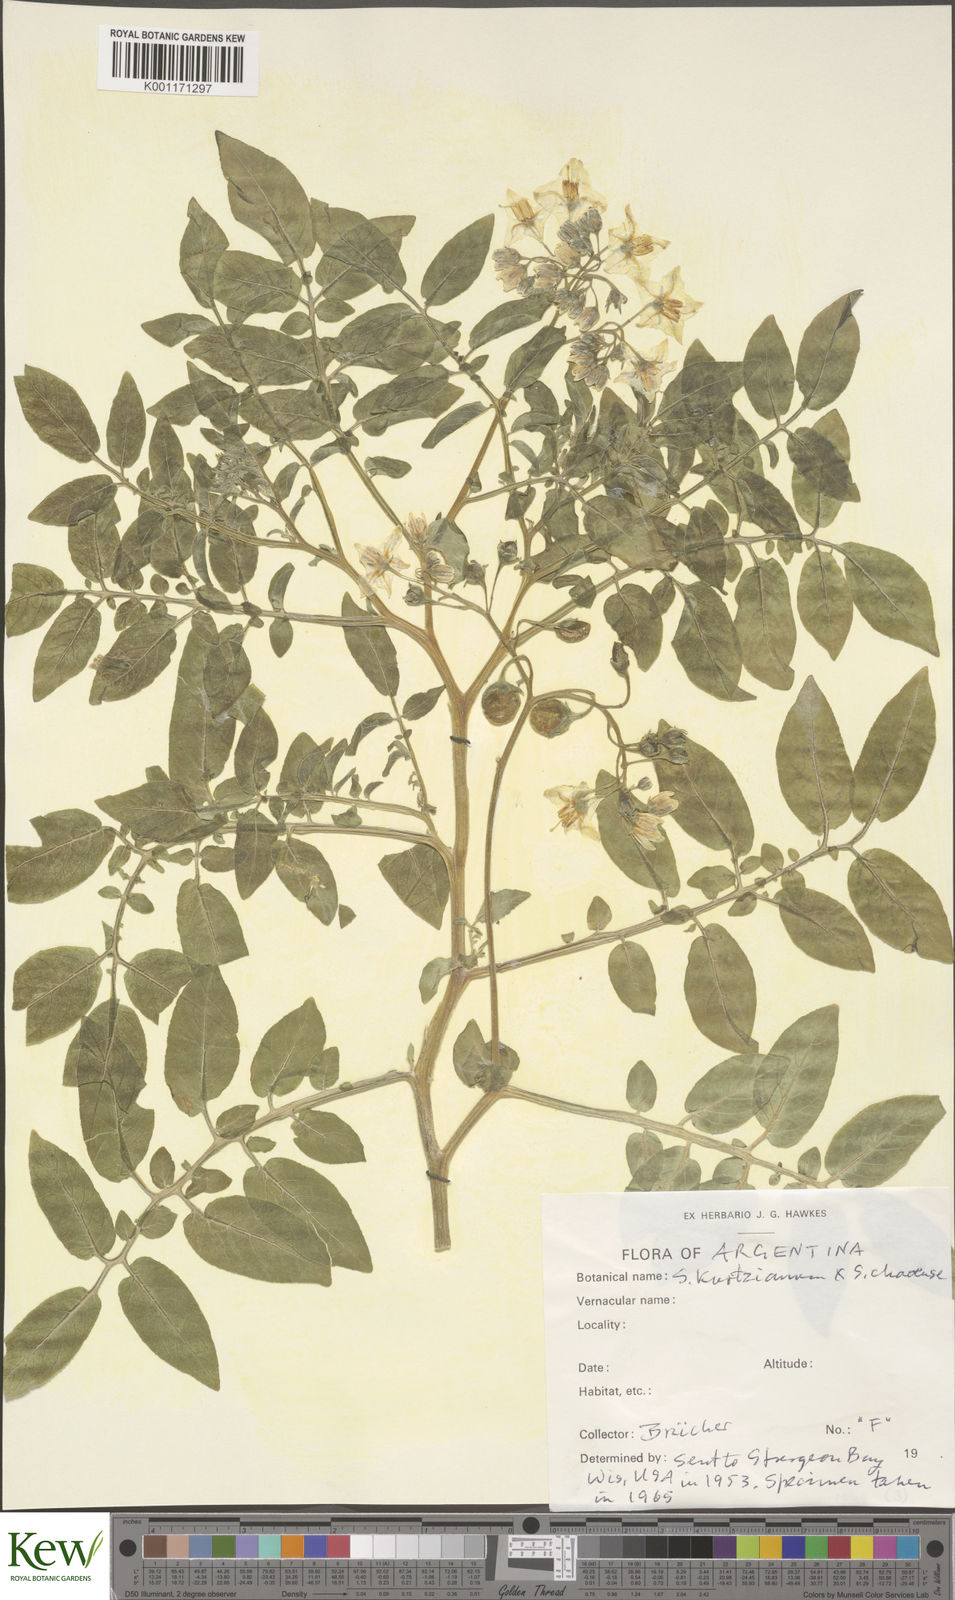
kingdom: Plantae
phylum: Tracheophyta
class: Magnoliopsida
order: Solanales
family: Solanaceae
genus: Solanum
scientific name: Solanum kurtzianum
